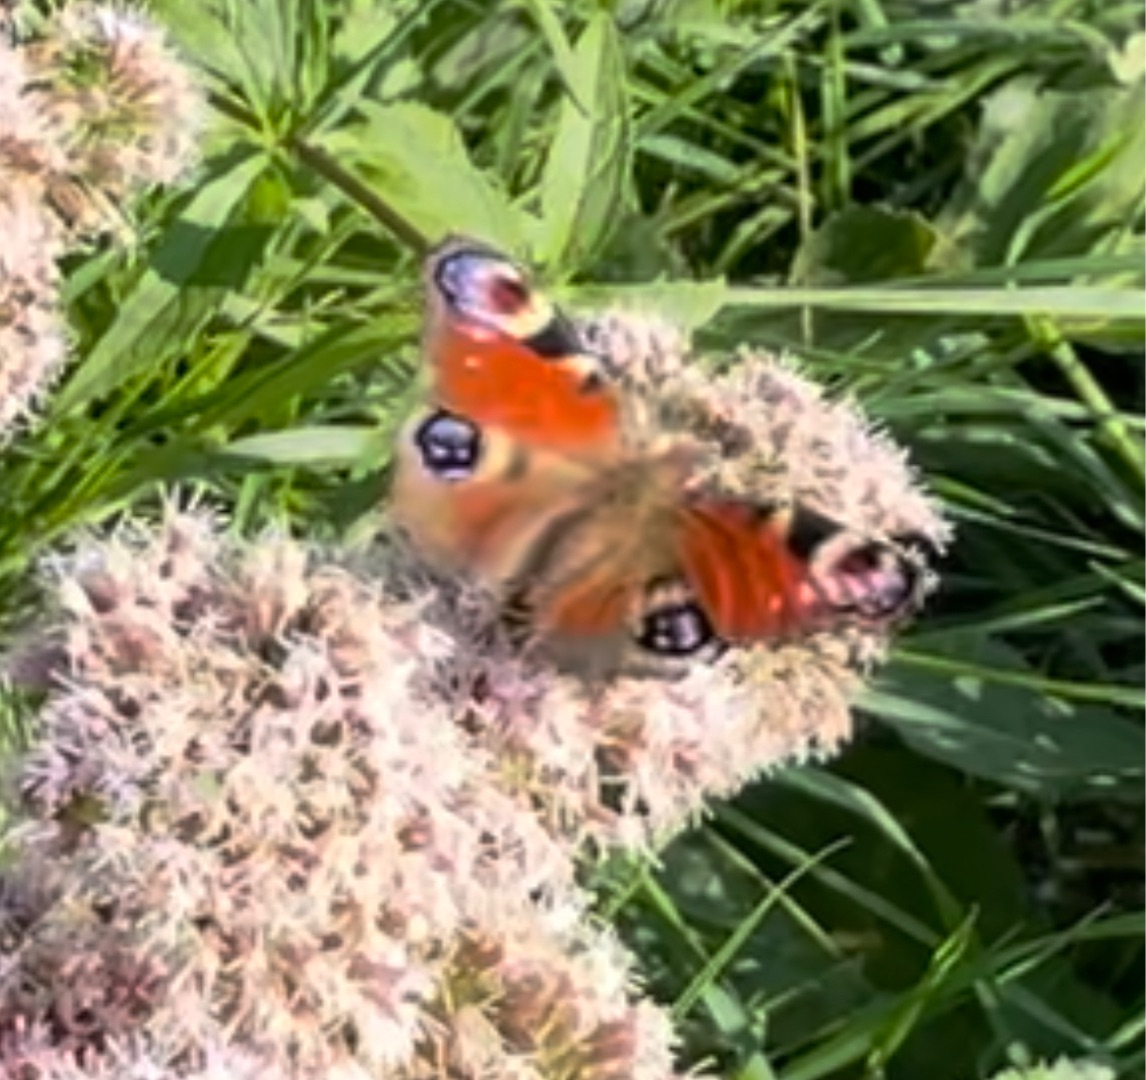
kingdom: Animalia
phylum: Arthropoda
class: Insecta
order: Lepidoptera
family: Nymphalidae
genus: Aglais
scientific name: Aglais io
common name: Dagpåfugleøje
